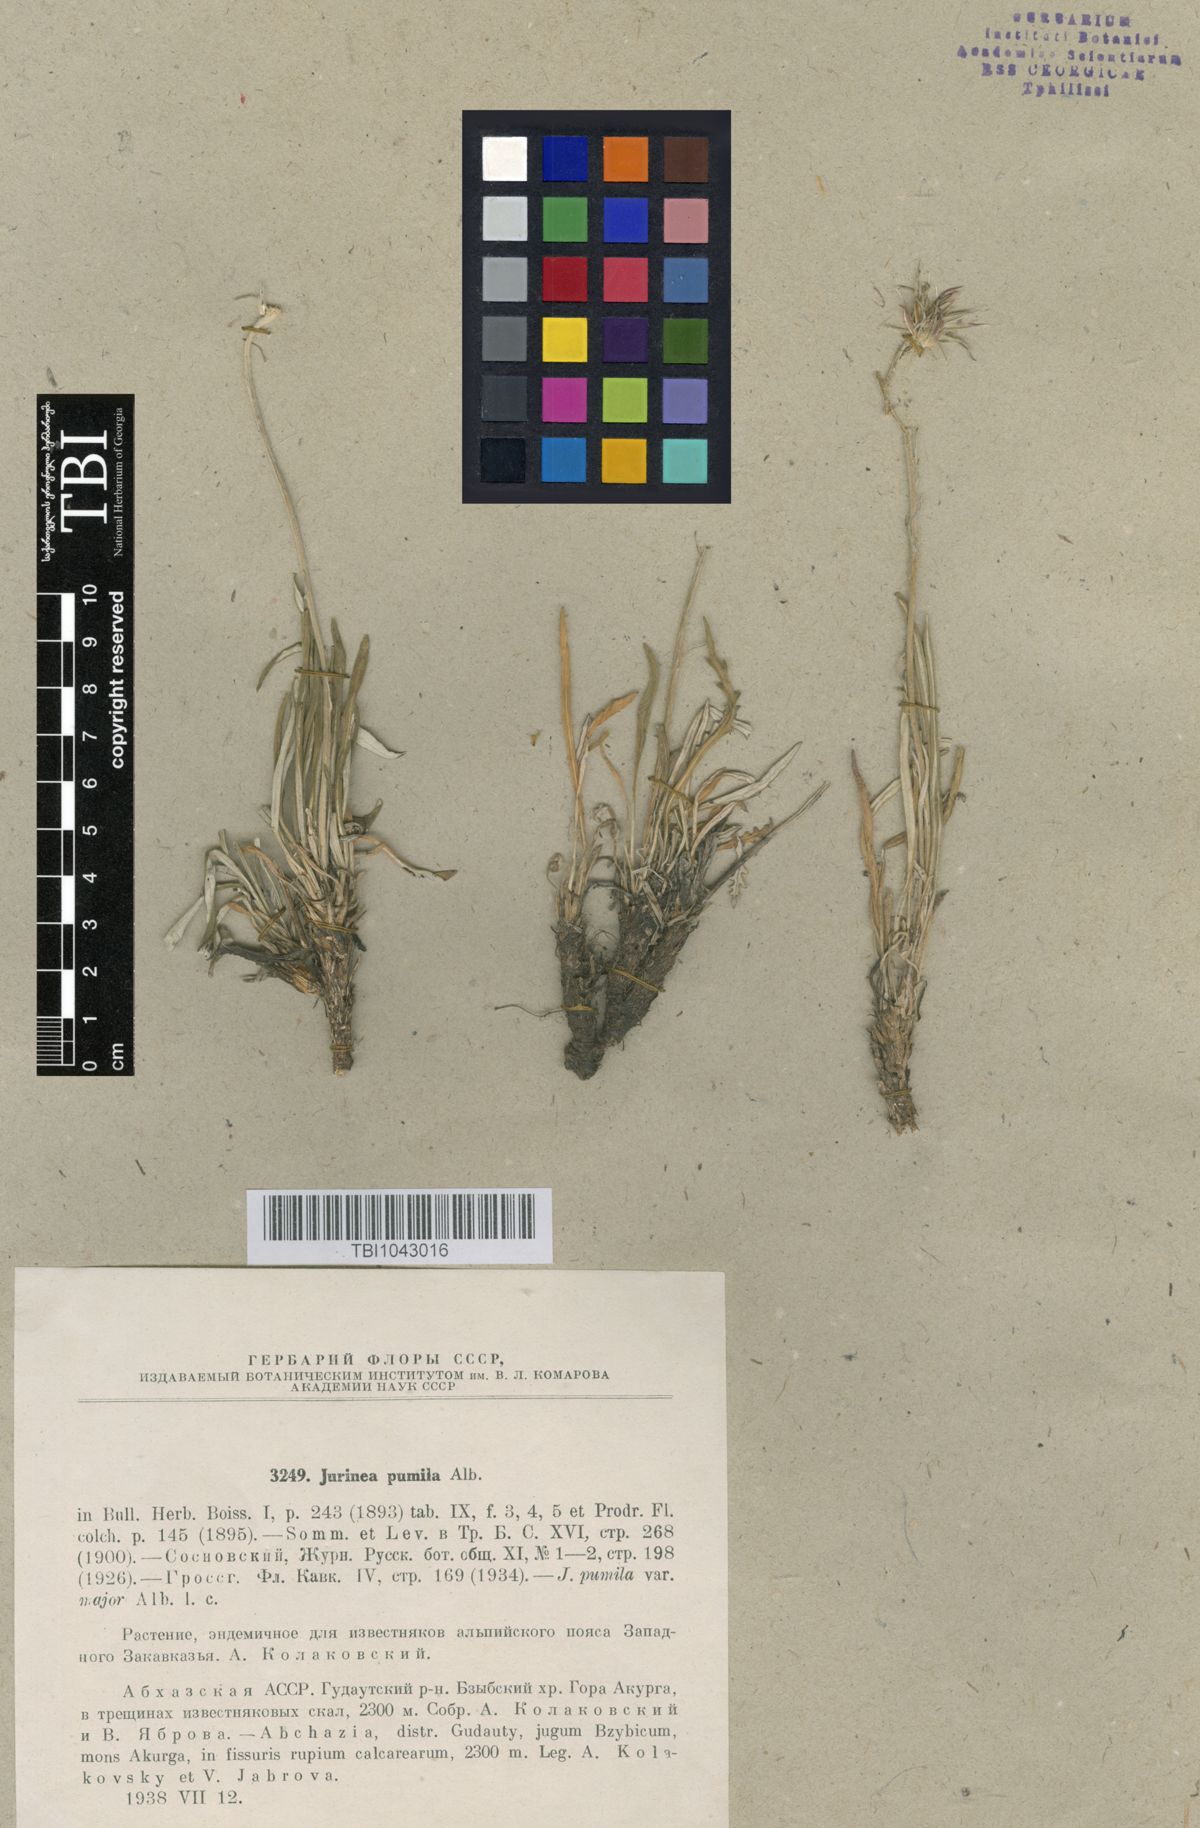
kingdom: Plantae
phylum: Tracheophyta
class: Magnoliopsida
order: Asterales
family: Asteraceae
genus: Jurinea
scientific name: Jurinea pumila
